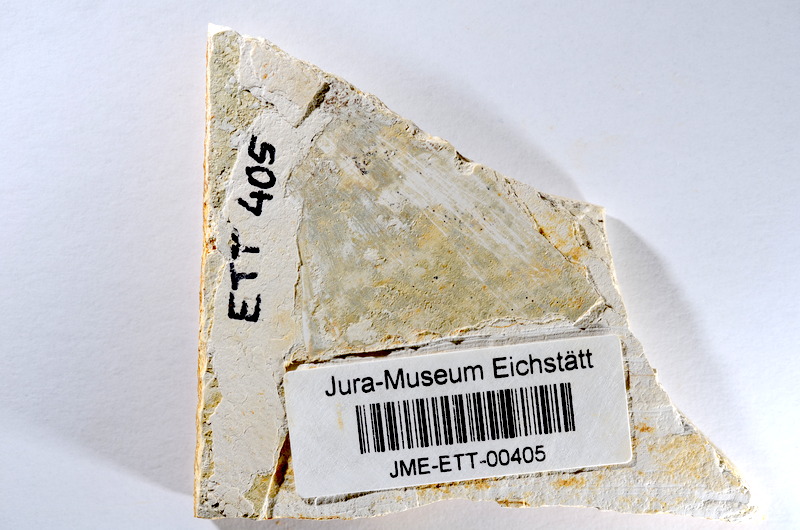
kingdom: Animalia
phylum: Chordata
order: Salmoniformes
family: Orthogonikleithridae
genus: Orthogonikleithrus
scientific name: Orthogonikleithrus hoelli
